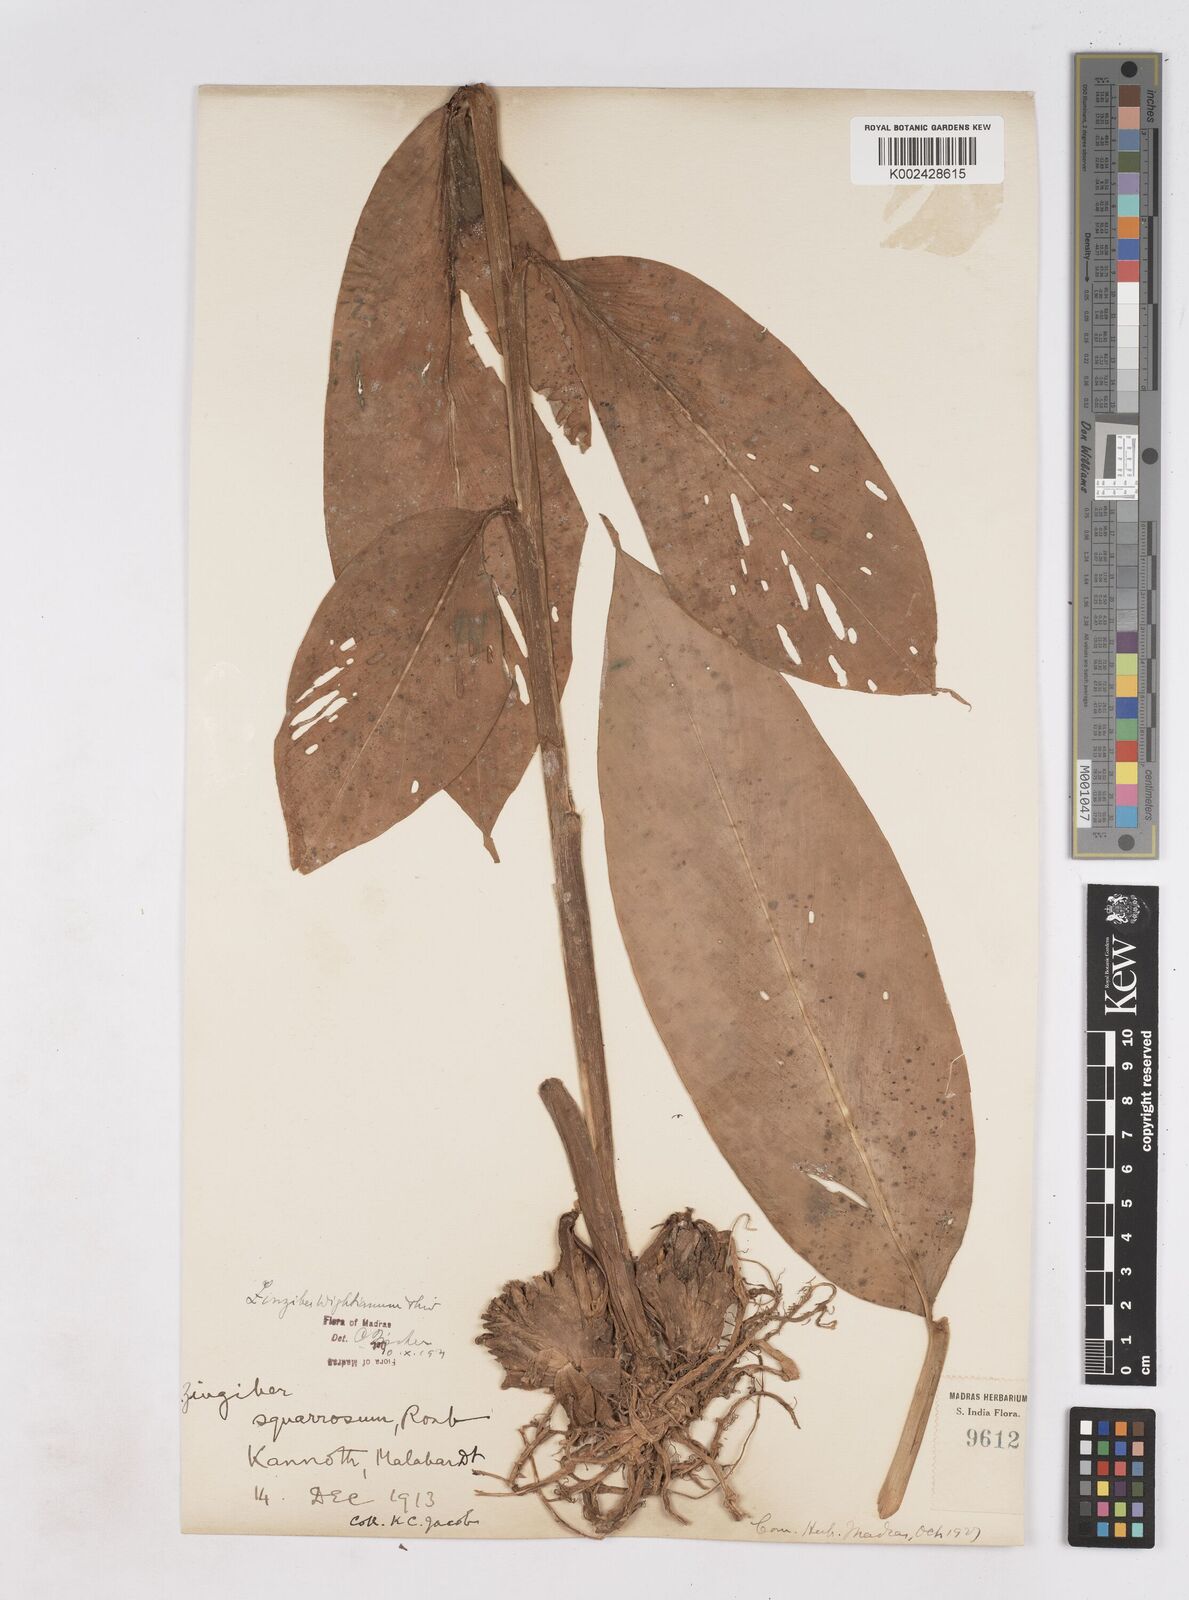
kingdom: Plantae
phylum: Tracheophyta
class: Liliopsida
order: Zingiberales
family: Zingiberaceae
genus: Zingiber
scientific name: Zingiber wightianum
